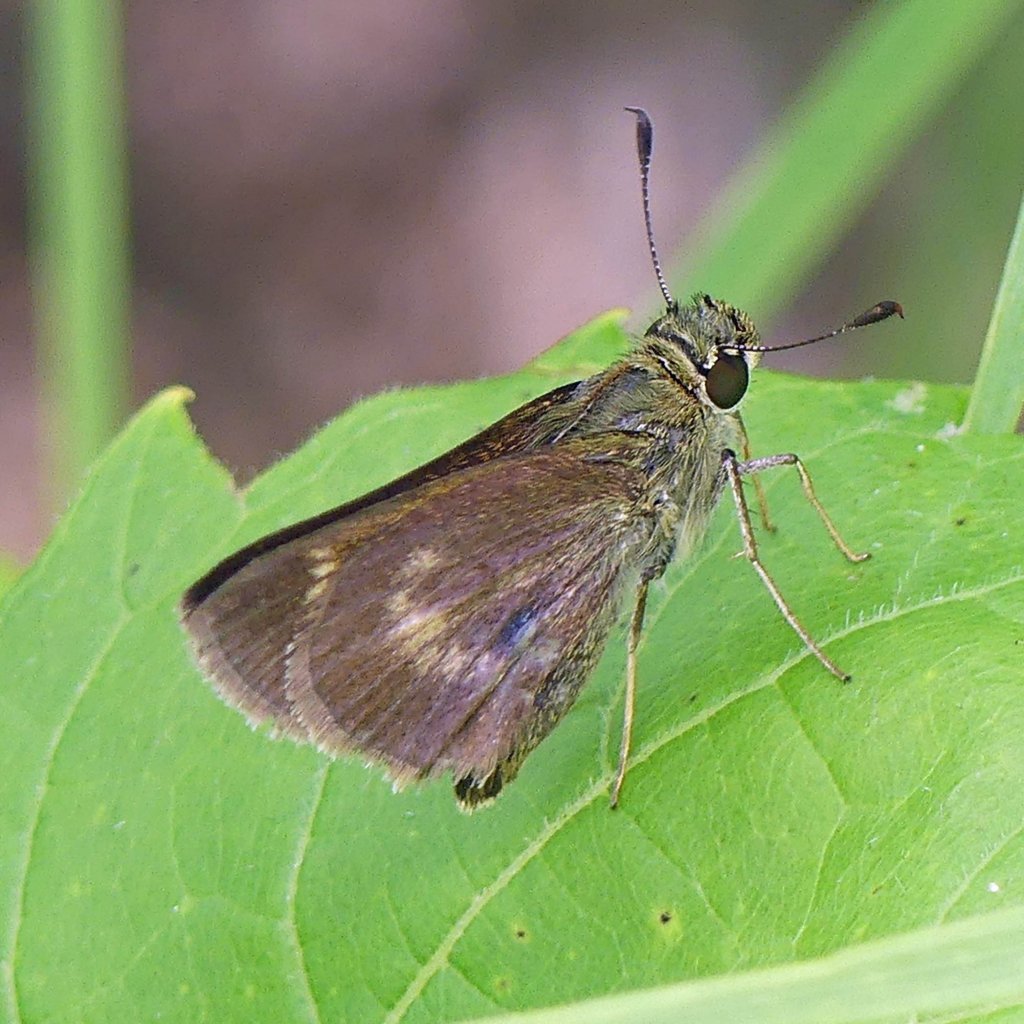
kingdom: Animalia
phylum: Arthropoda
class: Insecta
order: Lepidoptera
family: Hesperiidae
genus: Polites
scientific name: Polites egeremet
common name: Northern Broken-Dash
